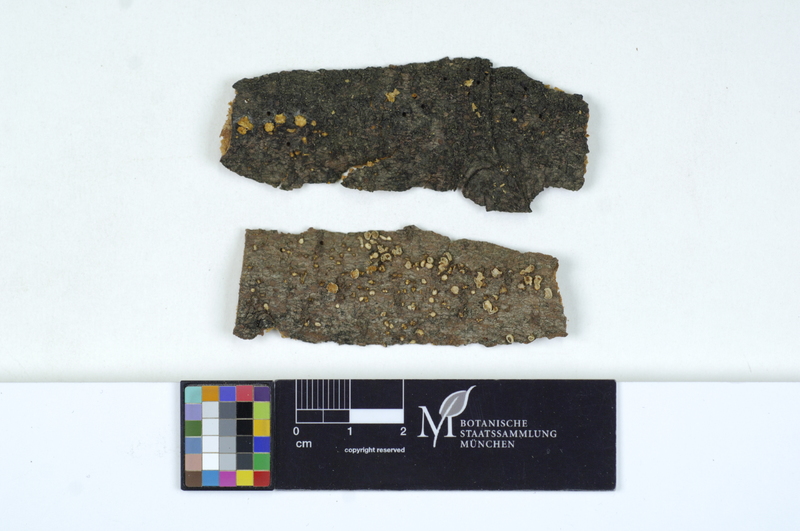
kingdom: Fungi
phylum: Basidiomycota
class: Tremellomycetes
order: Tremellales
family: Tremellaceae
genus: Phaeotremella
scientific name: Phaeotremella mycophaga
